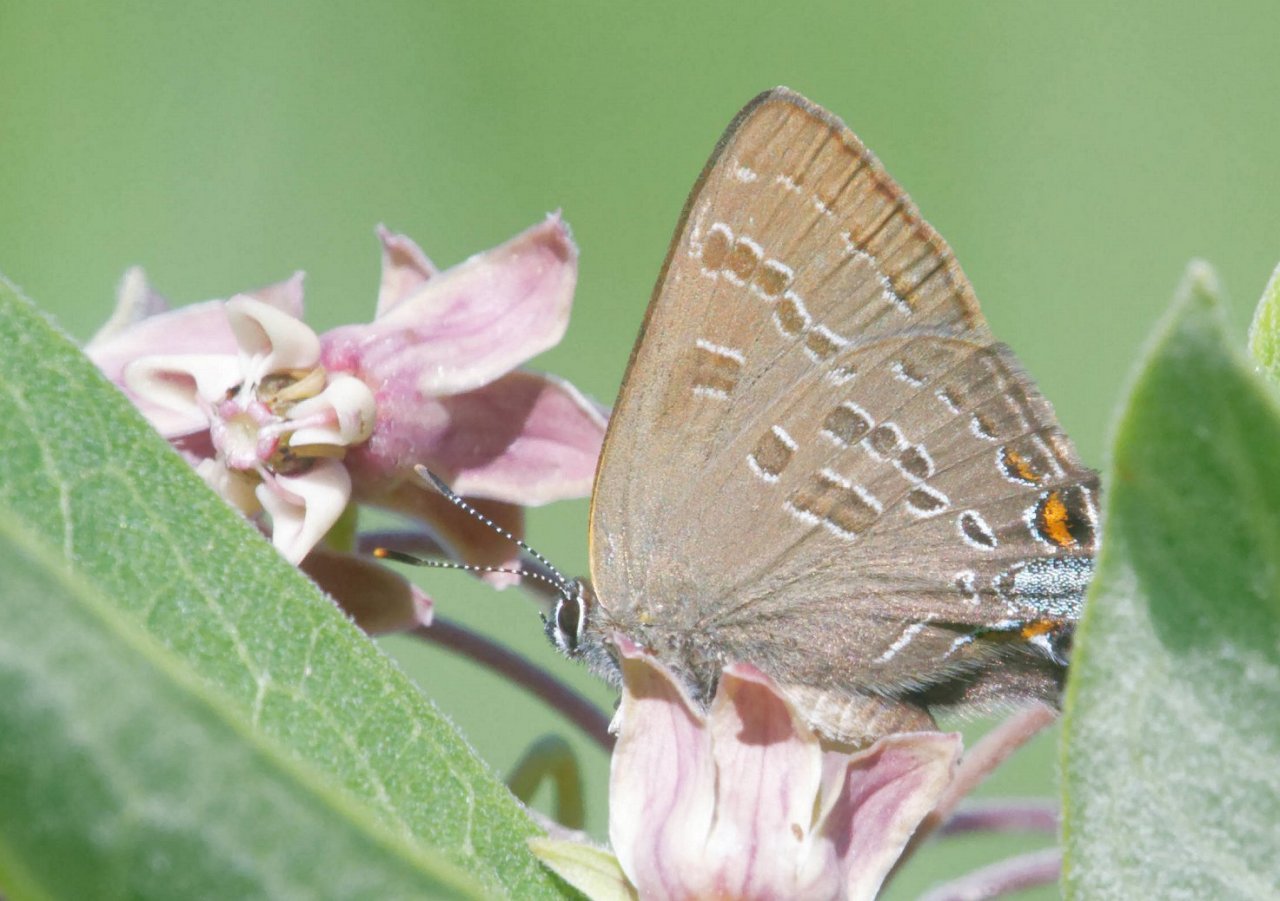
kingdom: Animalia
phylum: Arthropoda
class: Insecta
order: Lepidoptera
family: Lycaenidae
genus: Strymon
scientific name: Strymon caryaevorus
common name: Hickory Hairstreak
